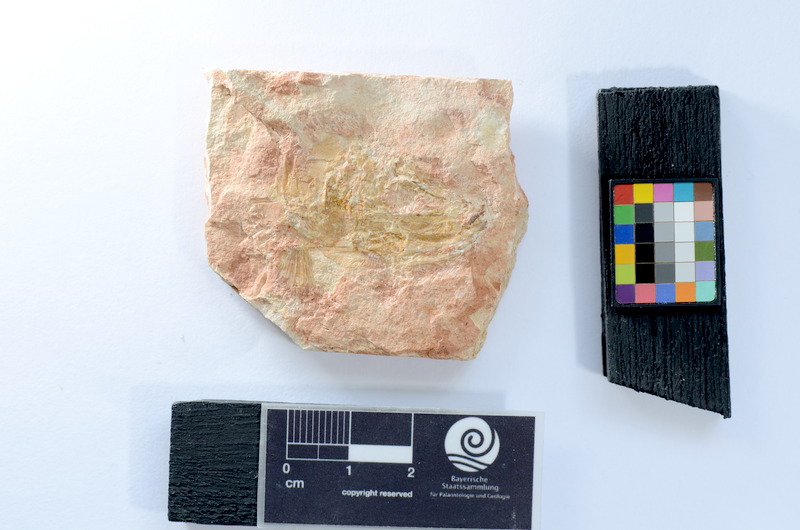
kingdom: Animalia
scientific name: Animalia
